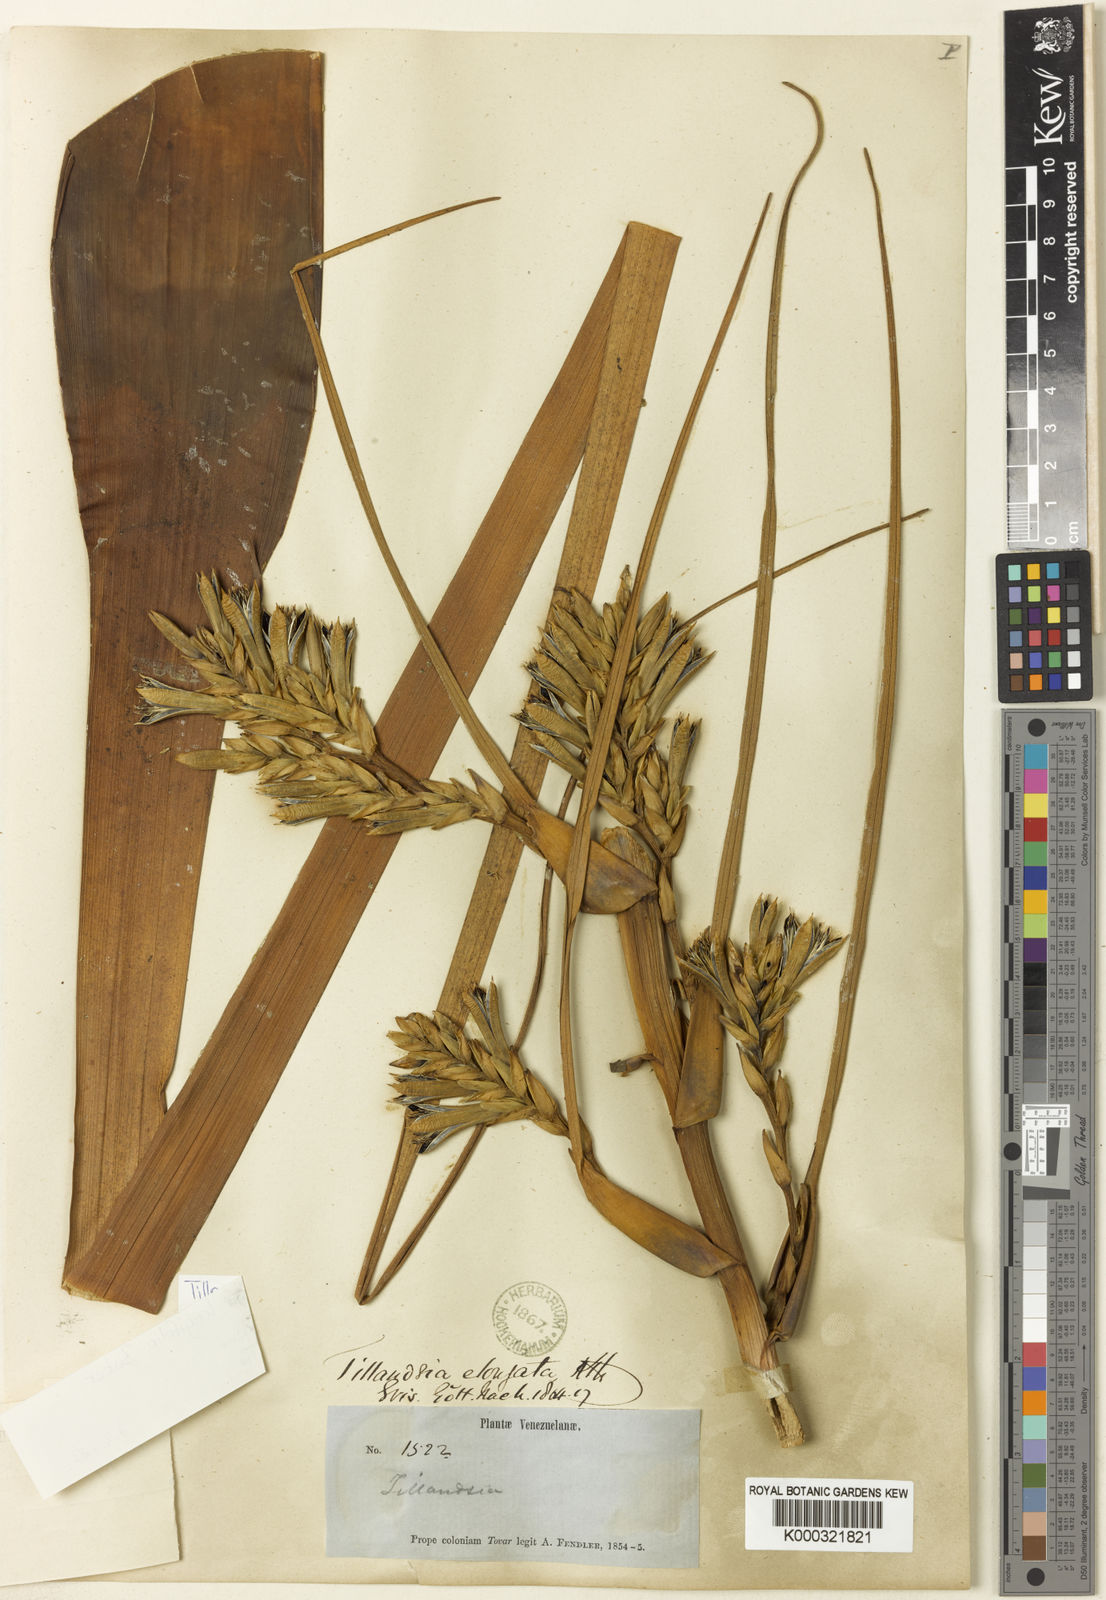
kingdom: Plantae
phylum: Tracheophyta
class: Liliopsida
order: Poales
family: Bromeliaceae
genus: Tillandsia
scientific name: Tillandsia longifolia
